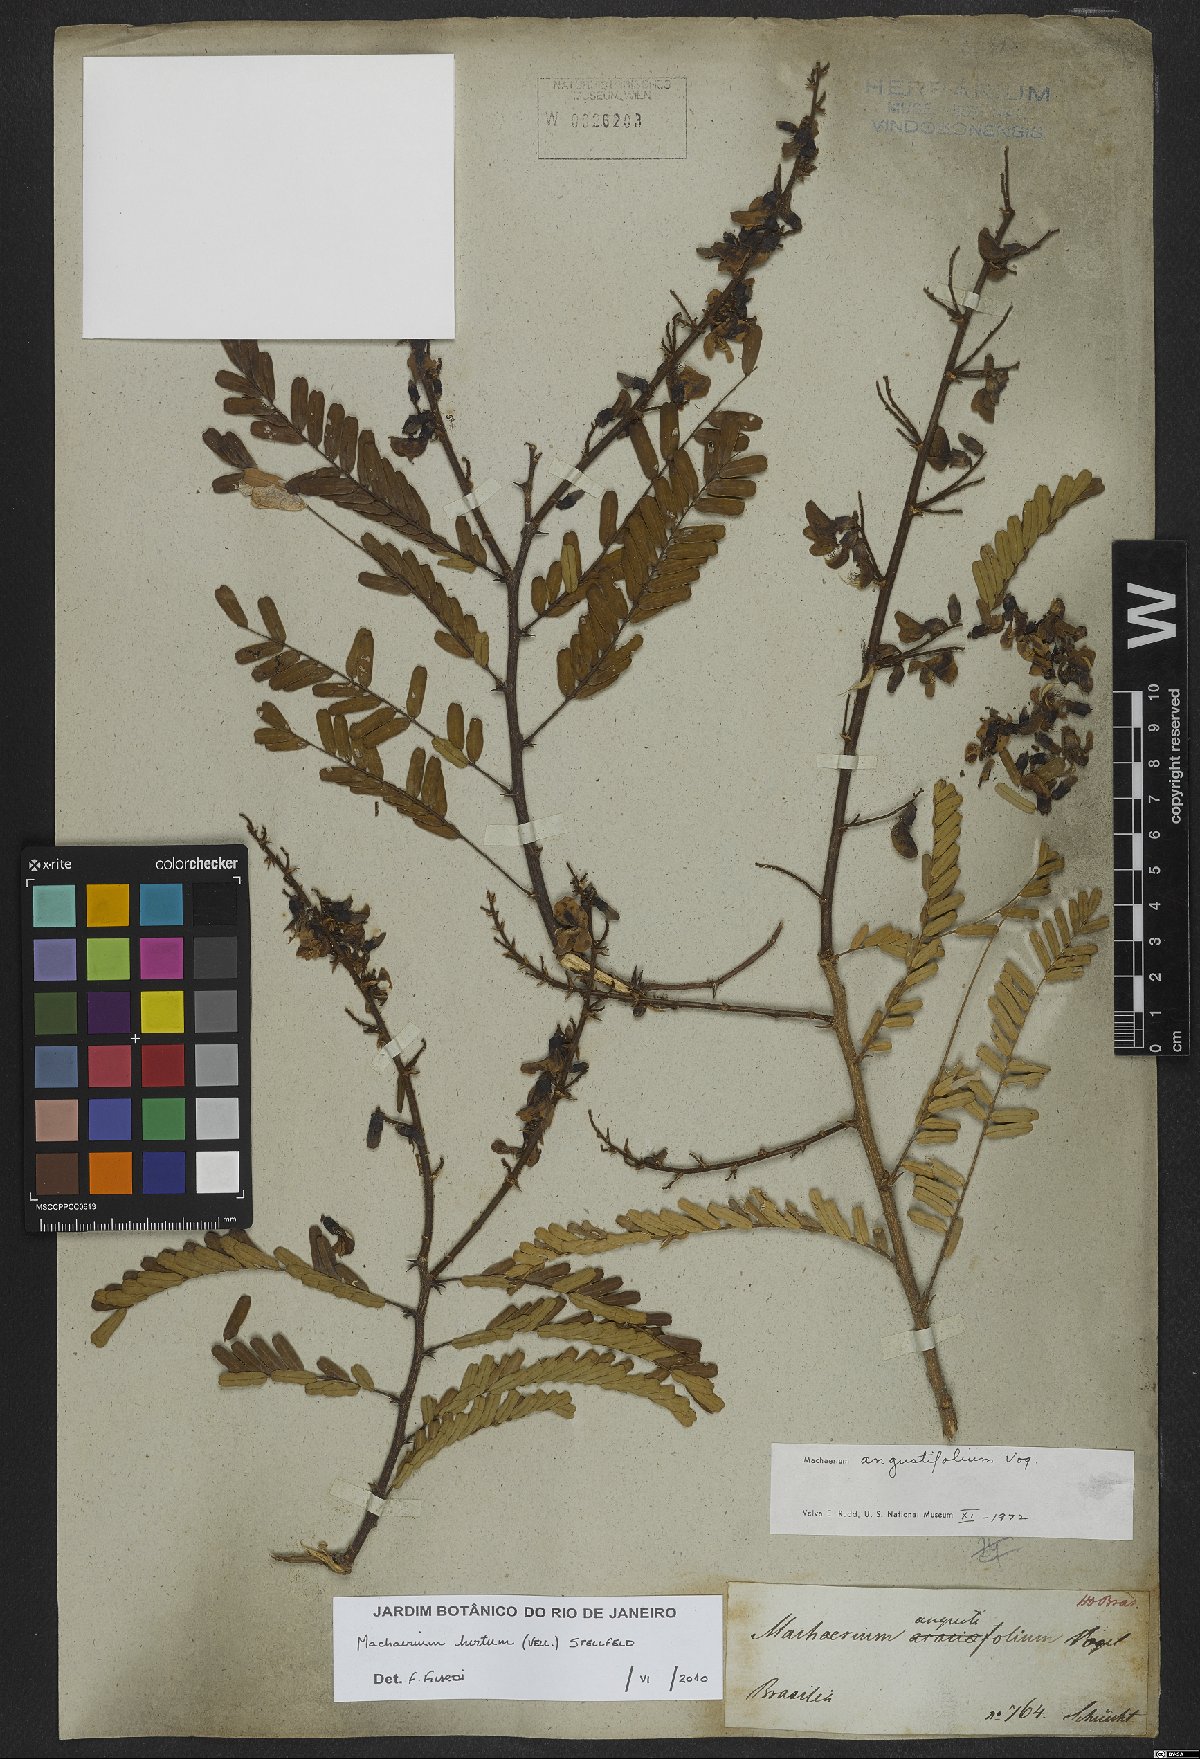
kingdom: Plantae
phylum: Tracheophyta
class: Magnoliopsida
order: Fabales
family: Fabaceae
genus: Machaerium
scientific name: Machaerium hirtum
